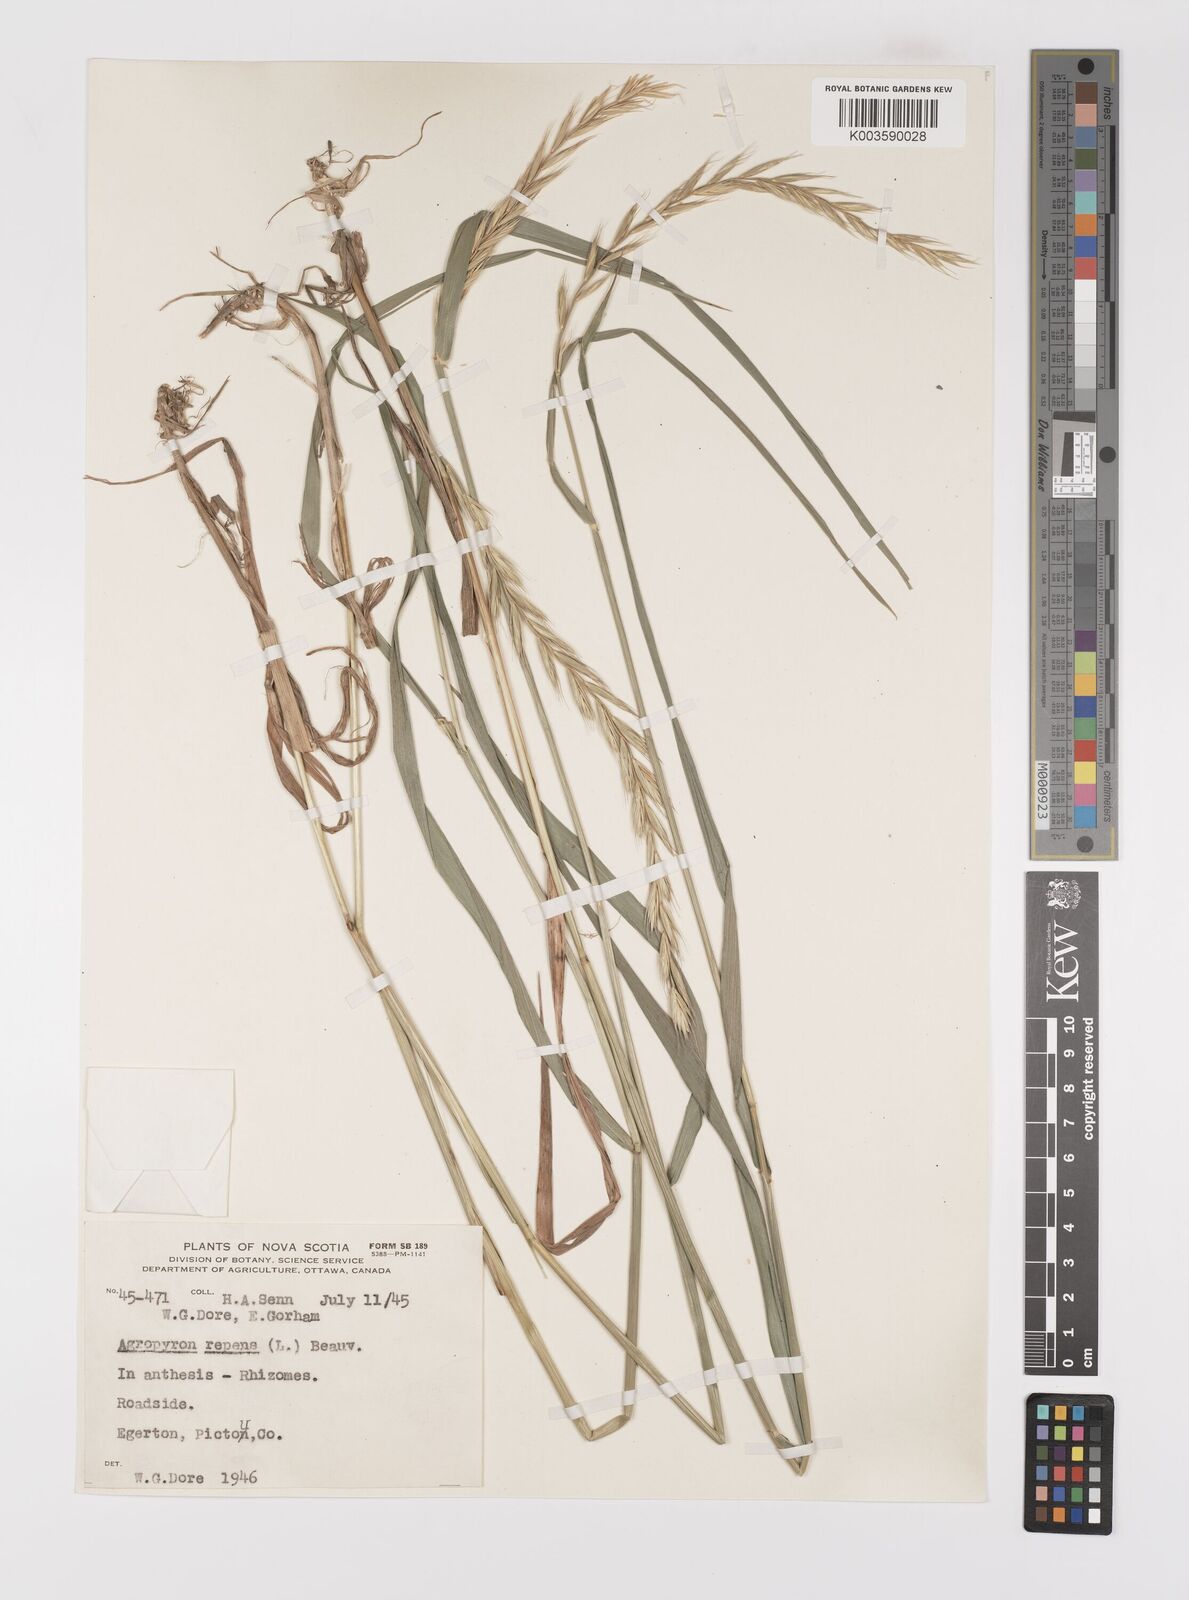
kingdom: Plantae
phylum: Tracheophyta
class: Liliopsida
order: Poales
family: Poaceae
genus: Elymus
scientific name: Elymus repens
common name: Quackgrass
